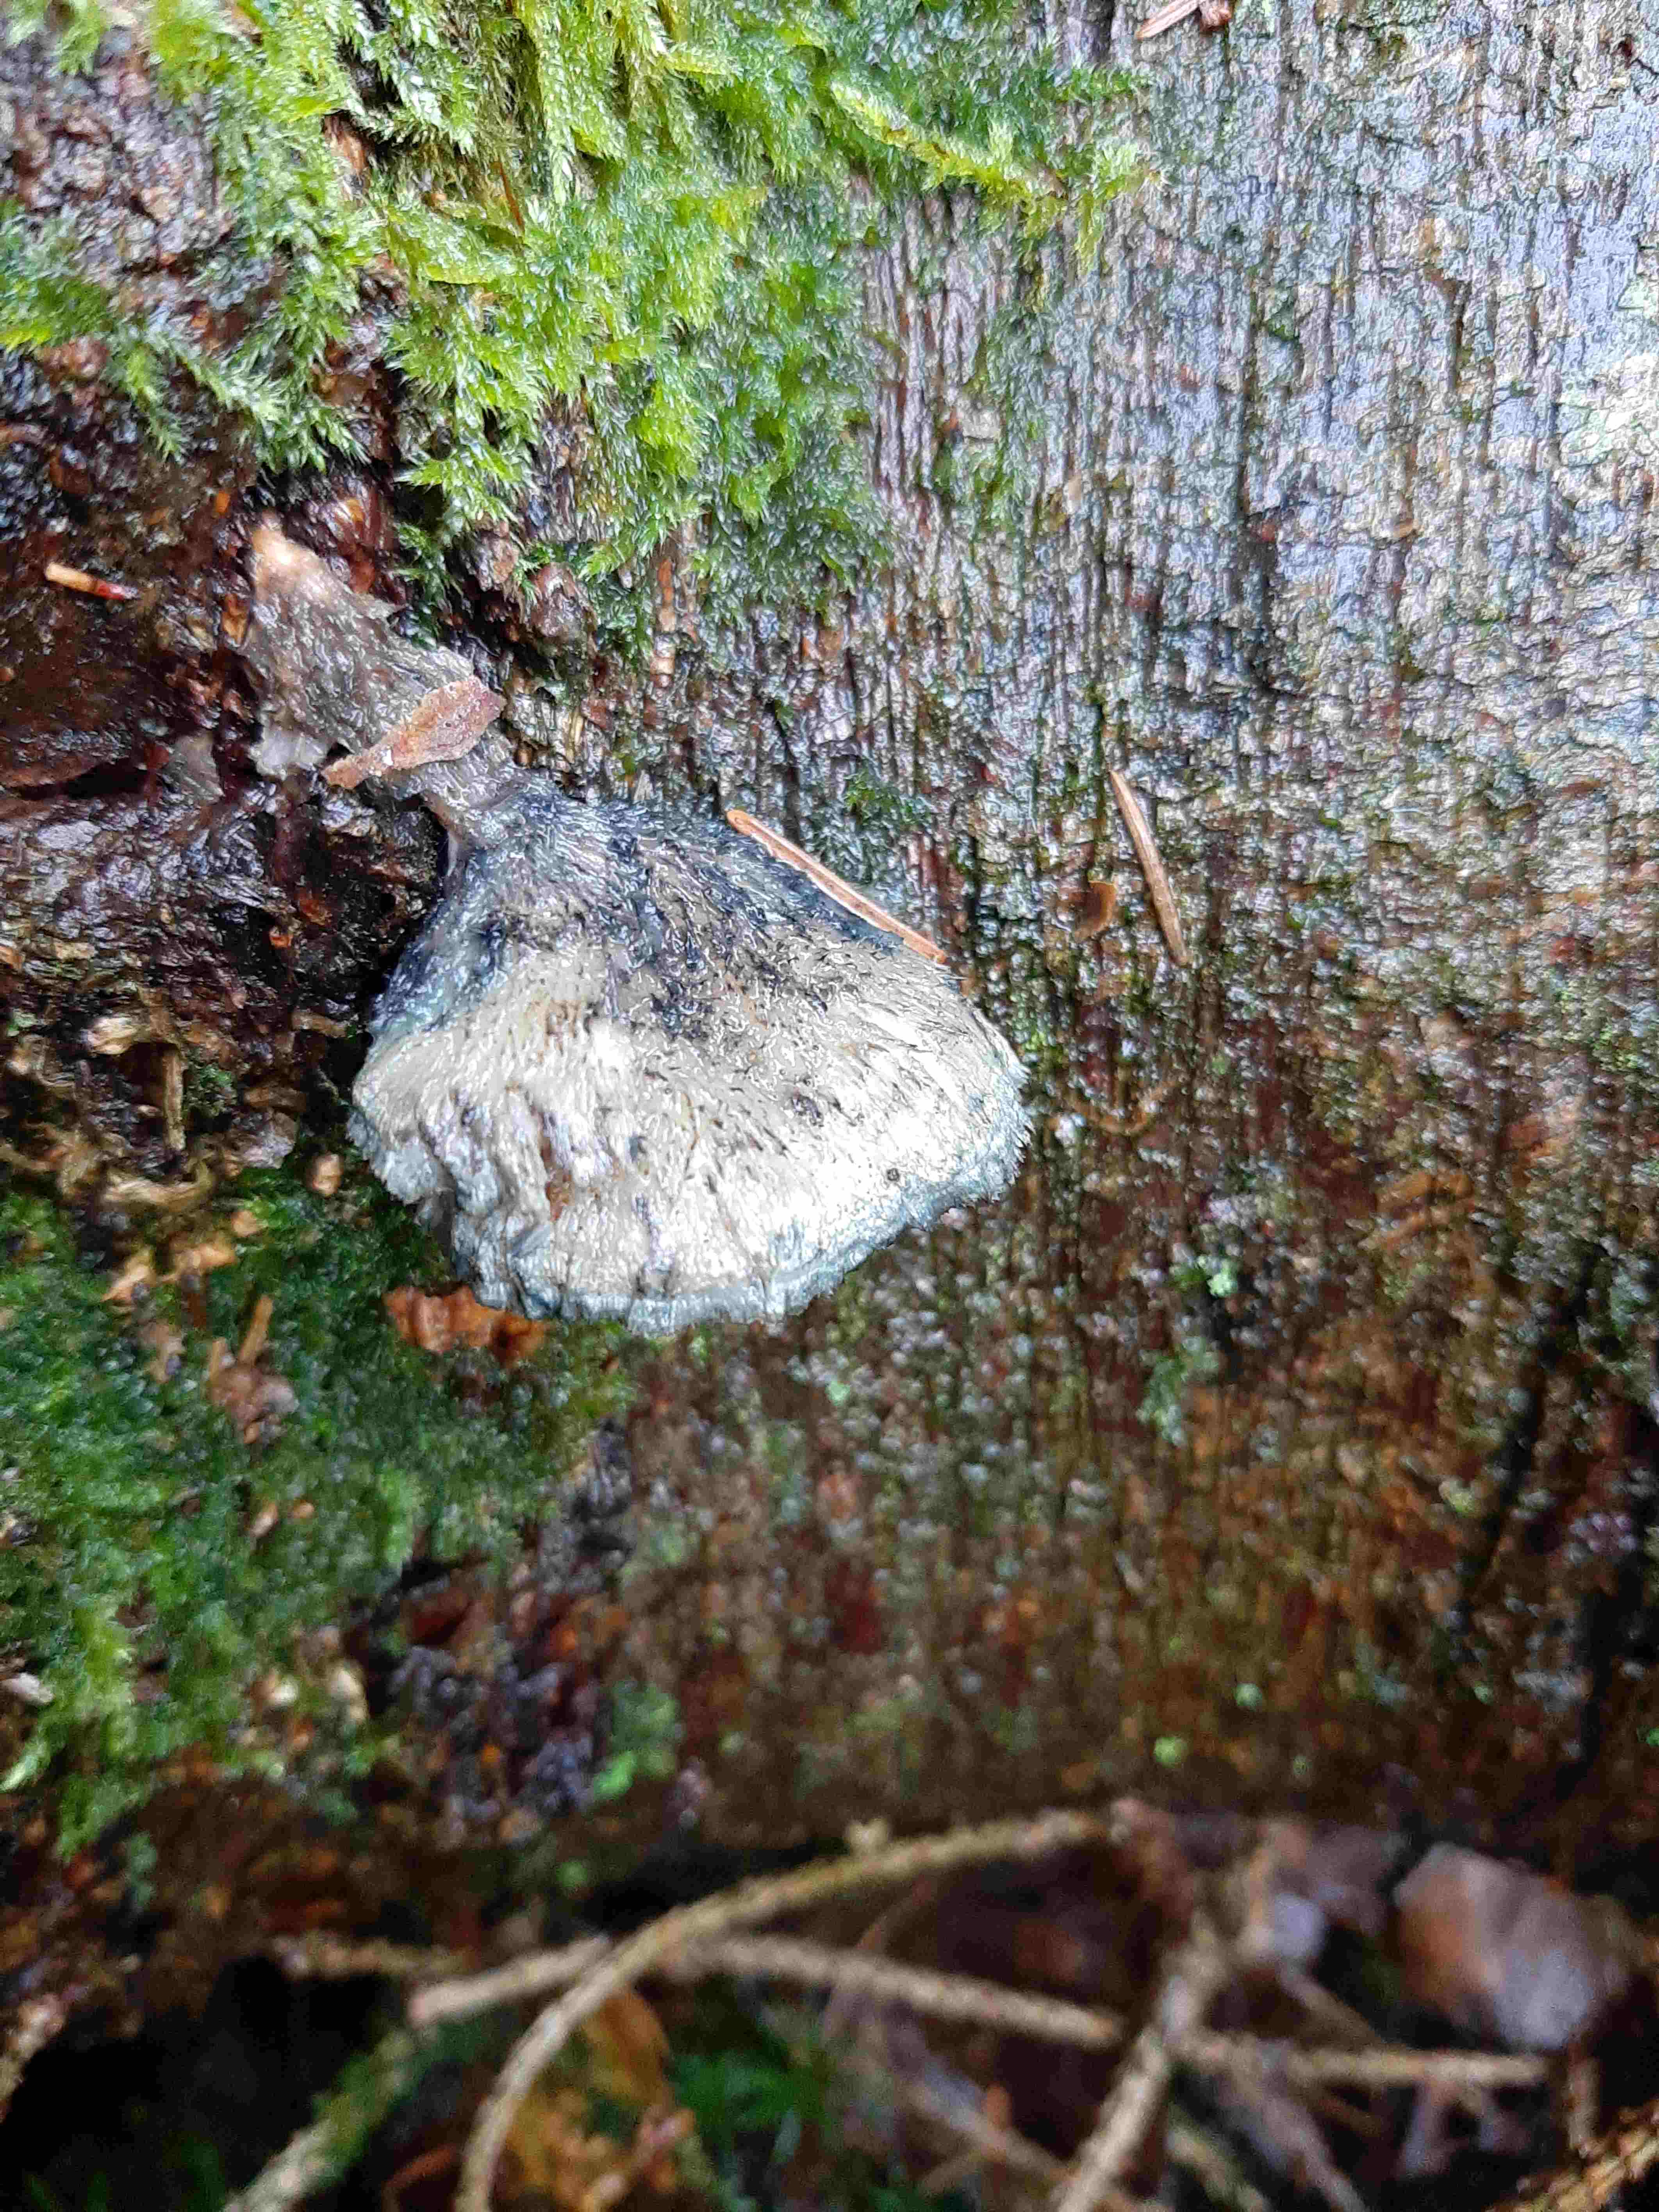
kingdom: Fungi
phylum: Basidiomycota
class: Agaricomycetes
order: Polyporales
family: Polyporaceae
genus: Cyanosporus
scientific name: Cyanosporus
